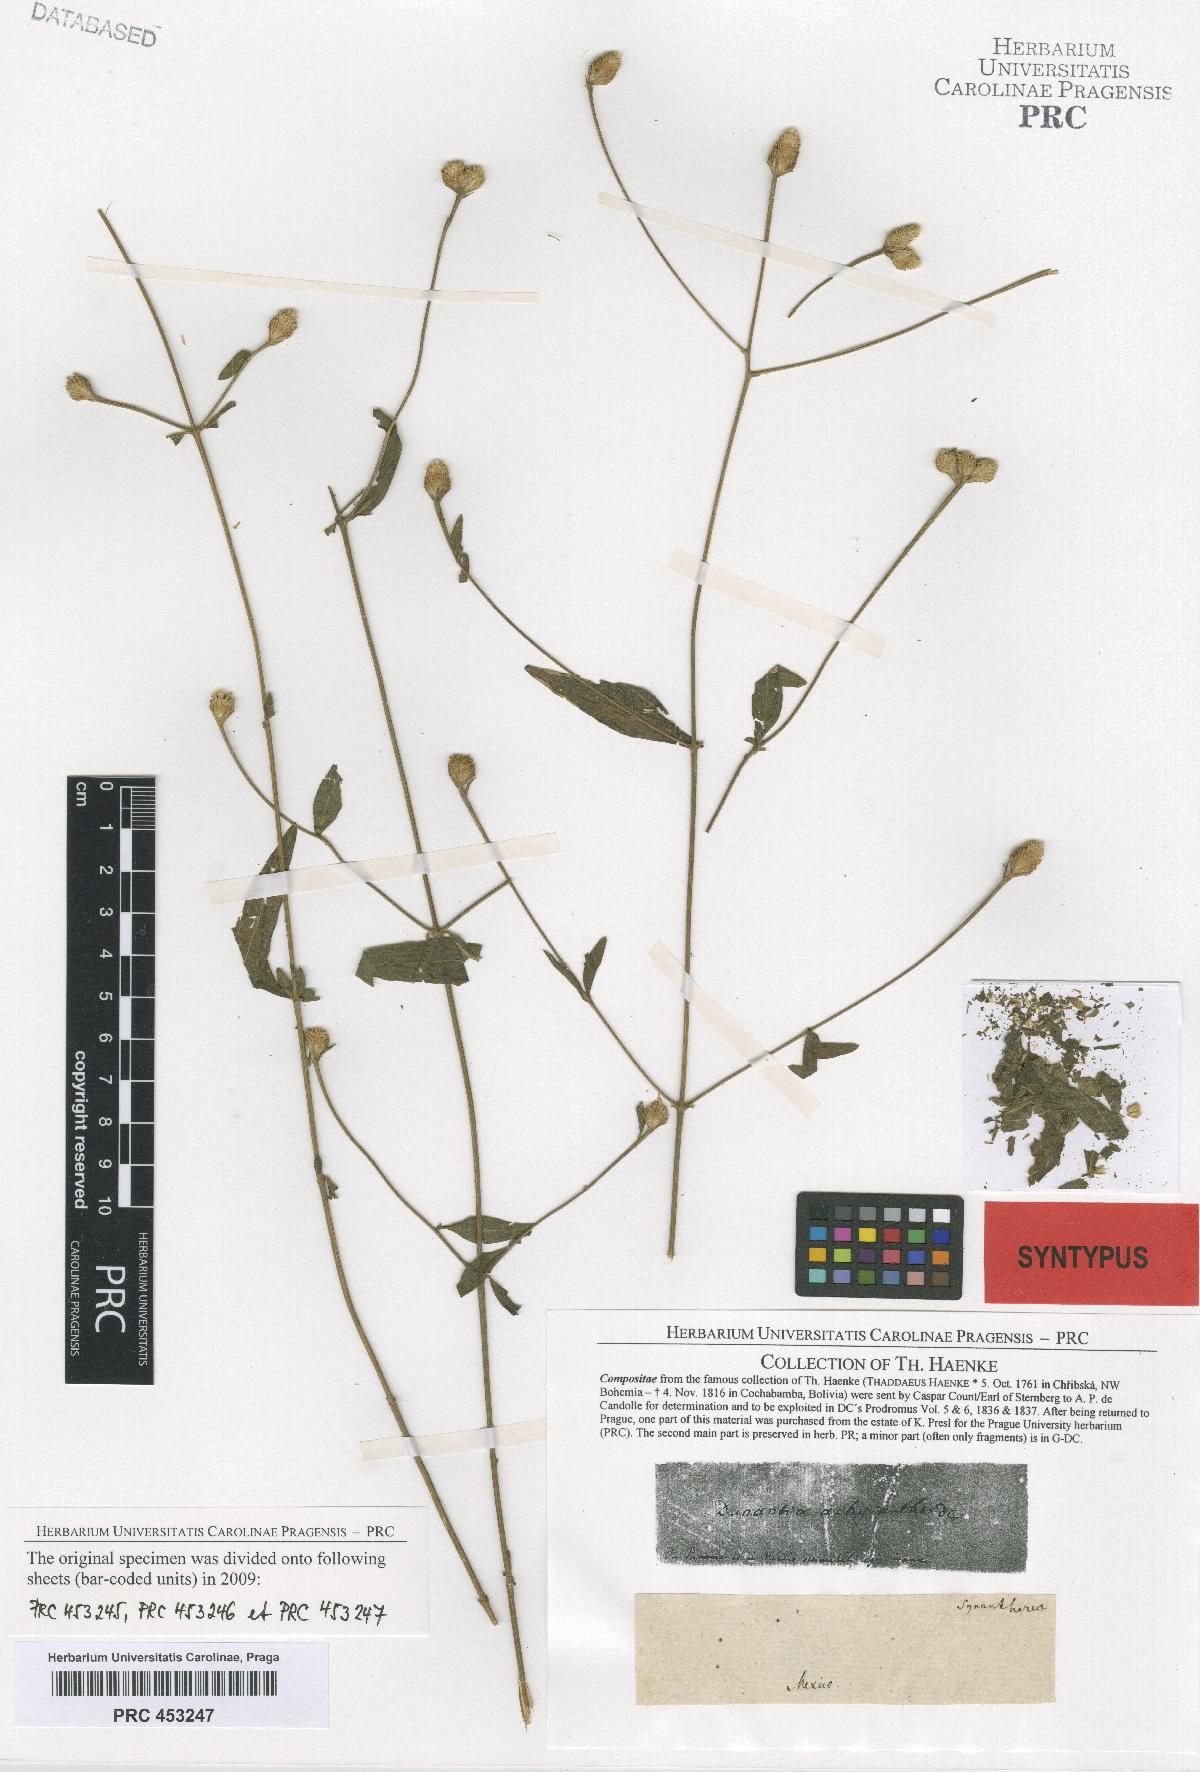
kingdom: Plantae
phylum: Tracheophyta
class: Magnoliopsida
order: Asterales
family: Asteraceae
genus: Isocarpha
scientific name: Isocarpha oppositifolia
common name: Rio grande pearlhead
